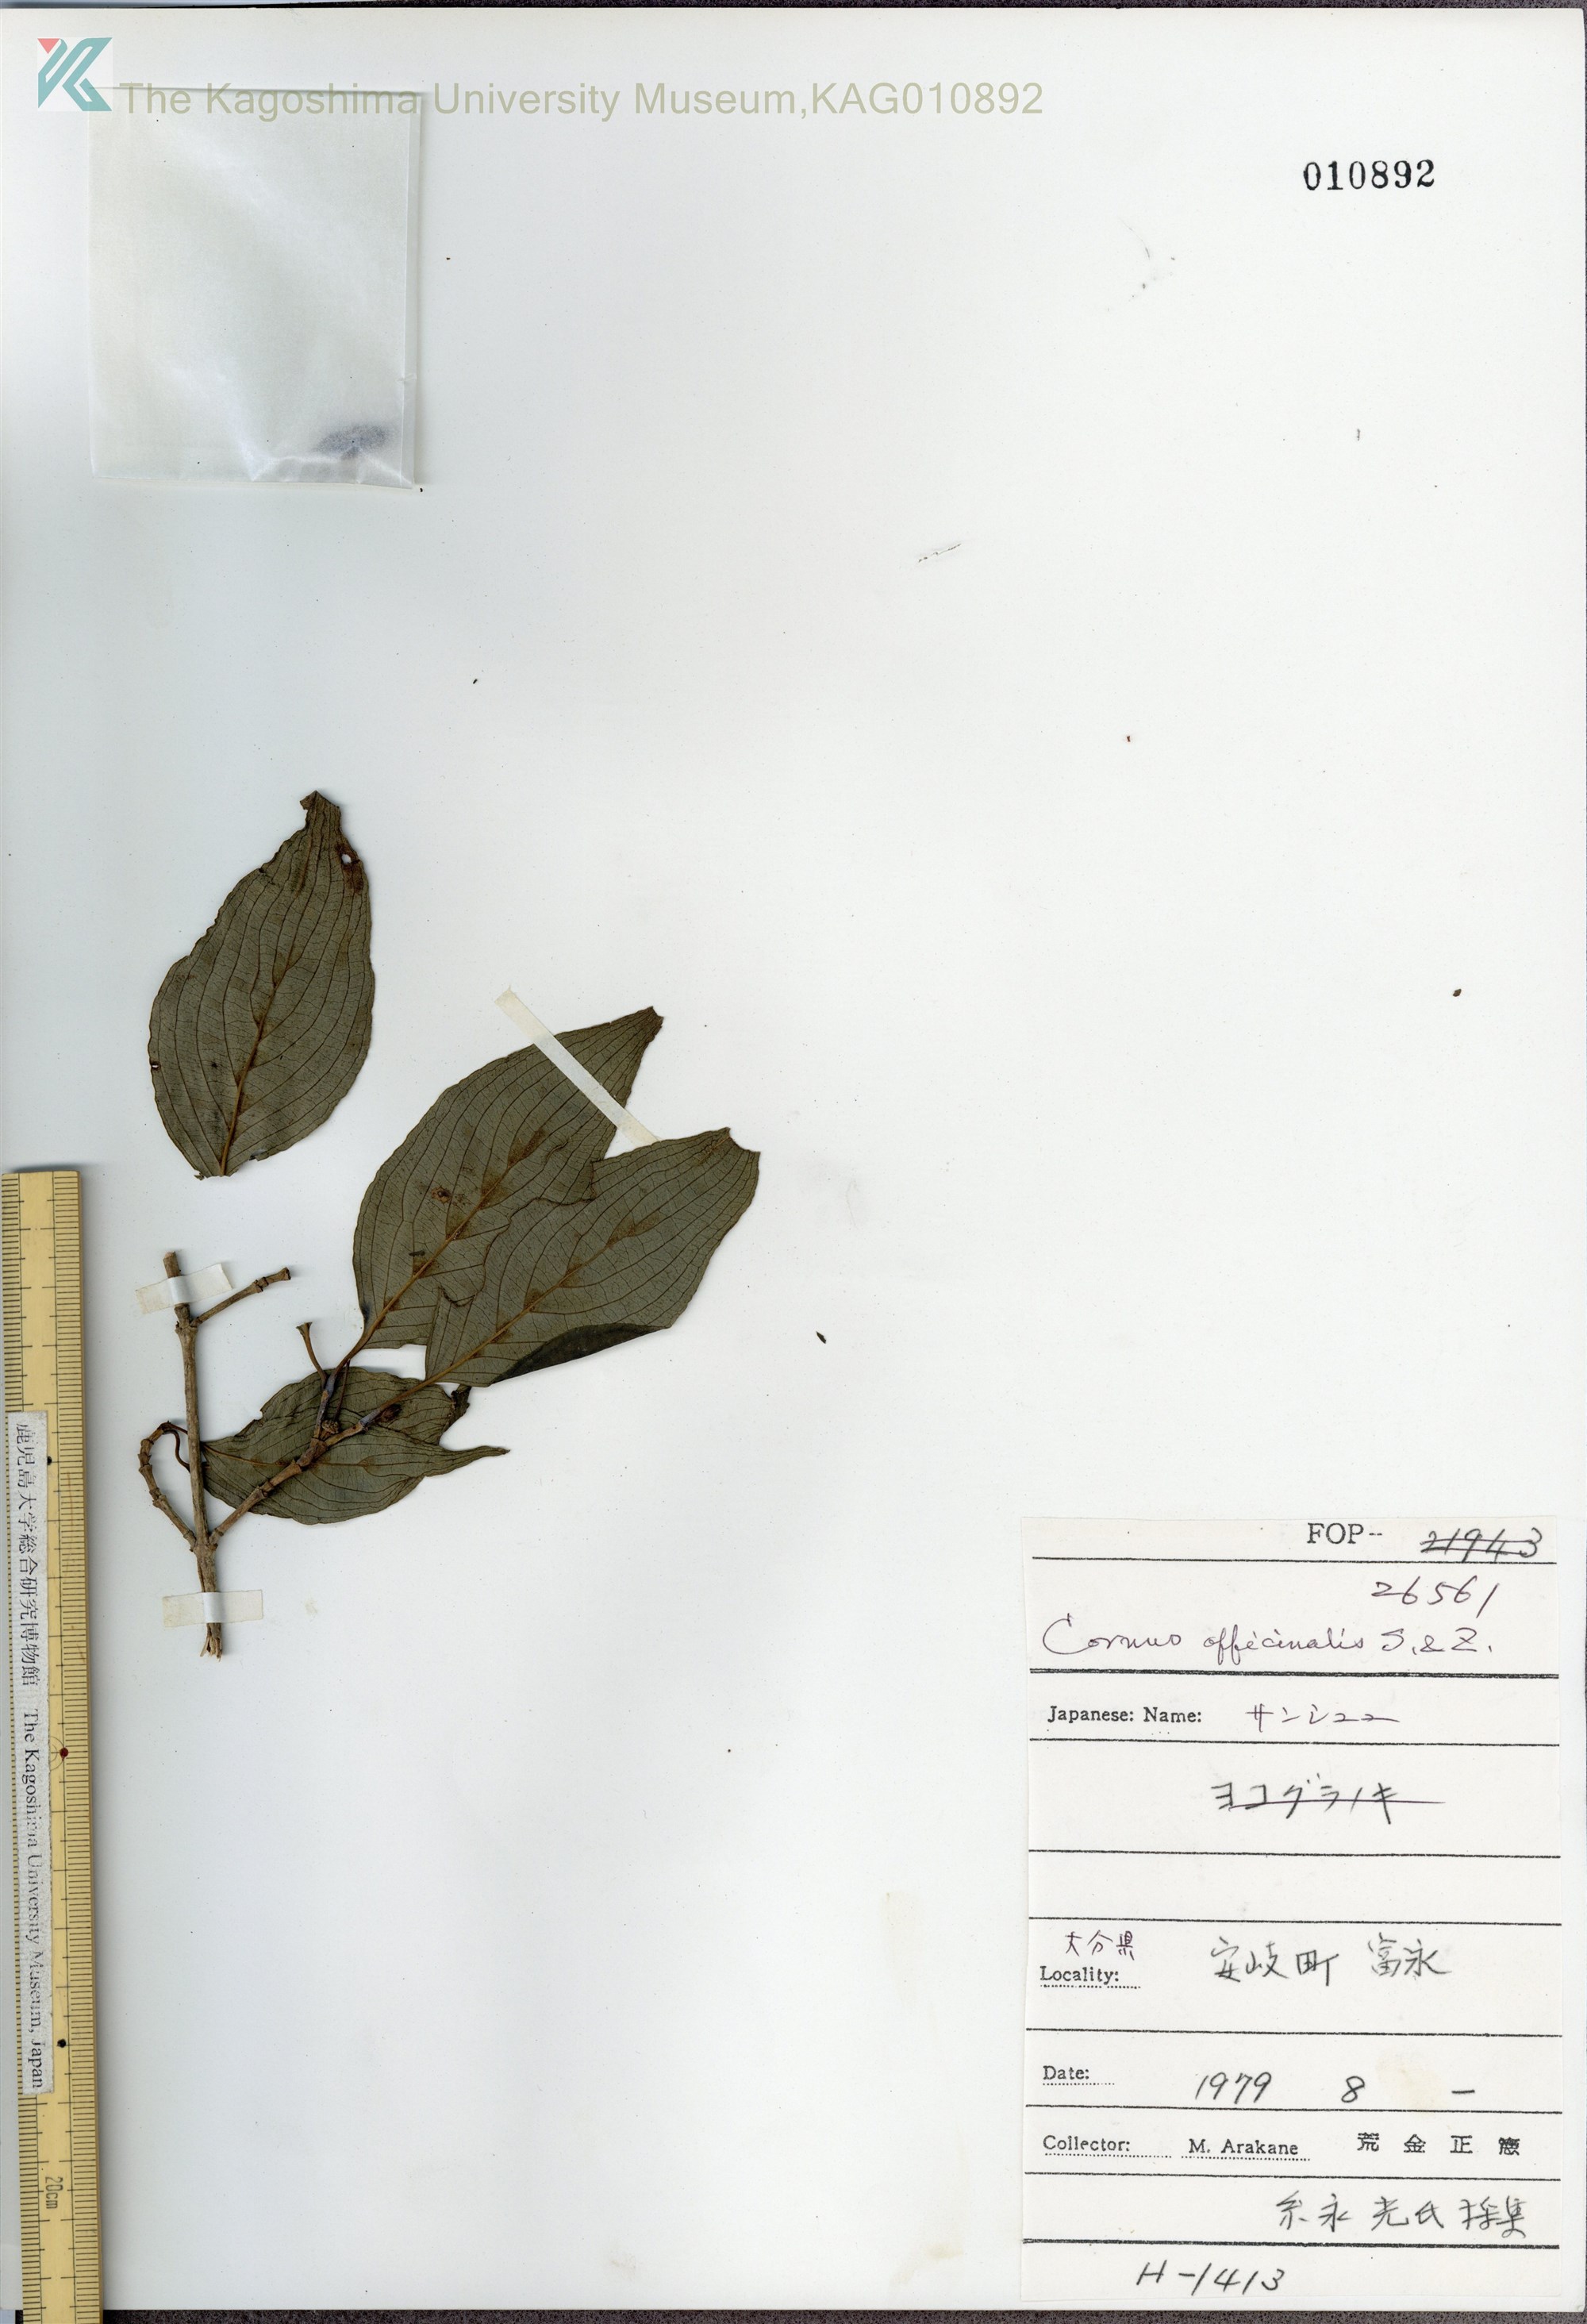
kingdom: Plantae
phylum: Tracheophyta
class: Magnoliopsida
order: Cornales
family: Cornaceae
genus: Cornus
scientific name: Cornus officinalis
